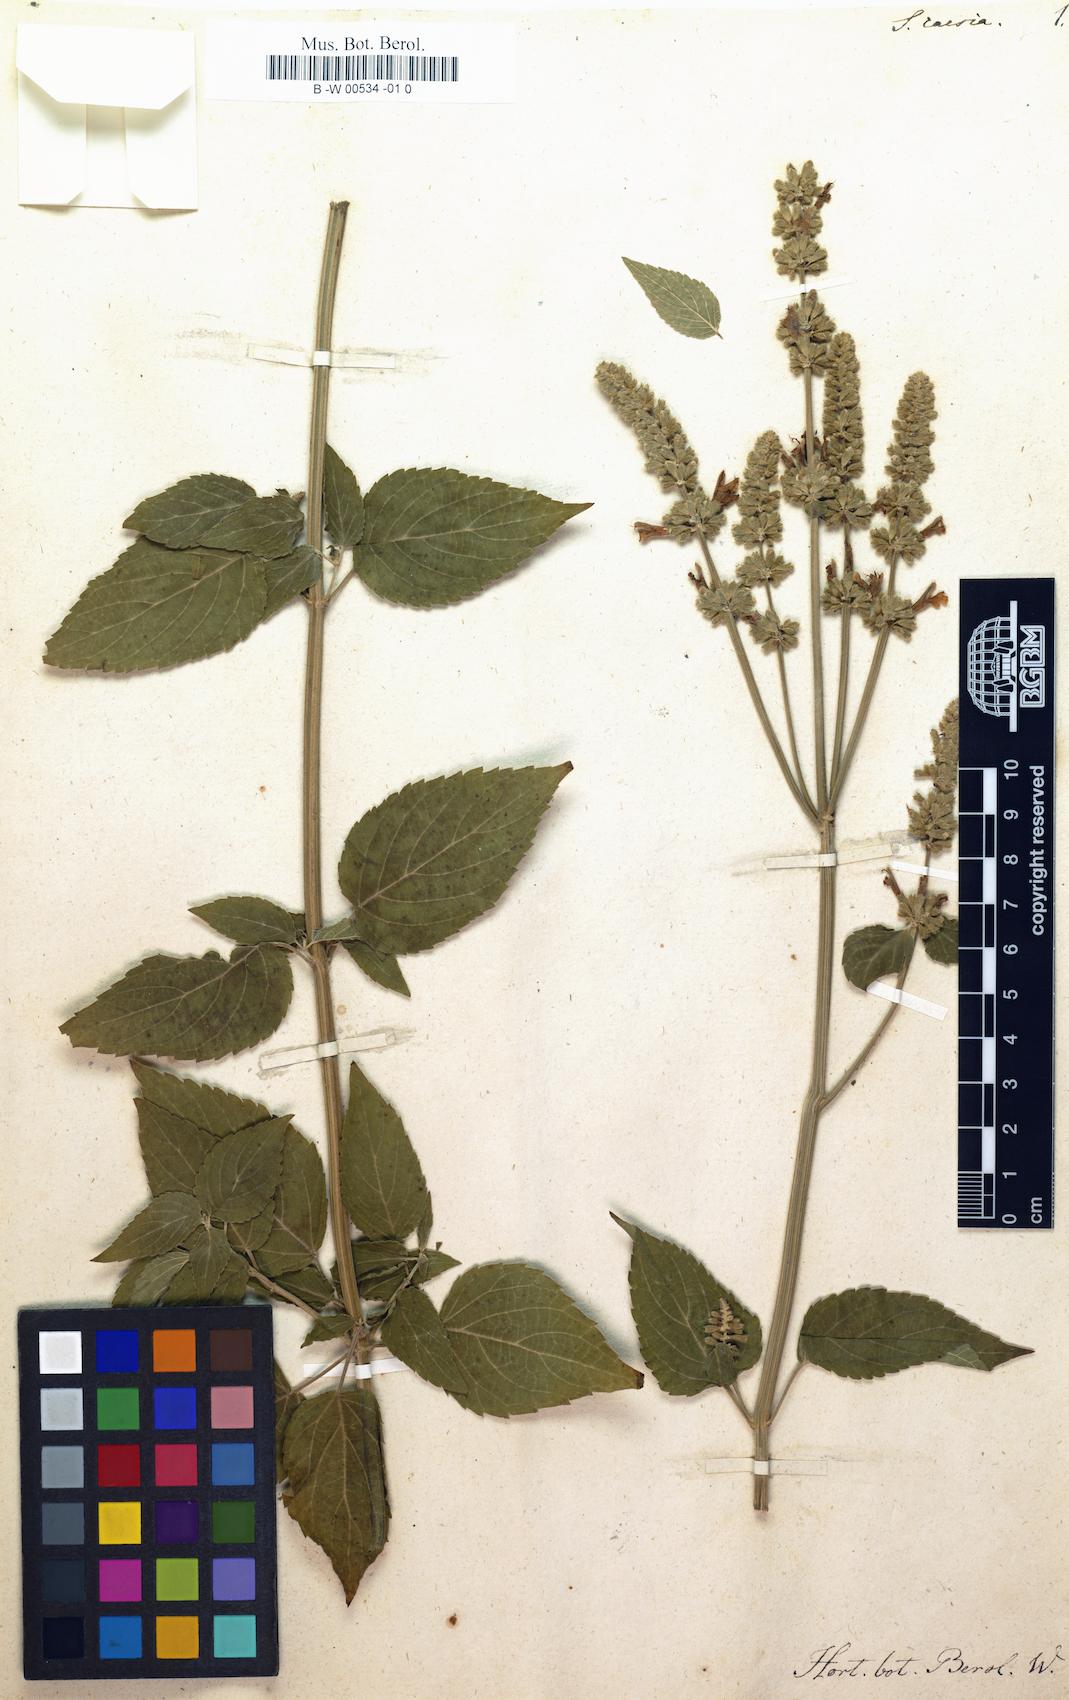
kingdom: Plantae
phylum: Tracheophyta
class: Magnoliopsida
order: Lamiales
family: Lamiaceae
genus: Salvia
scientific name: Salvia polystachia
